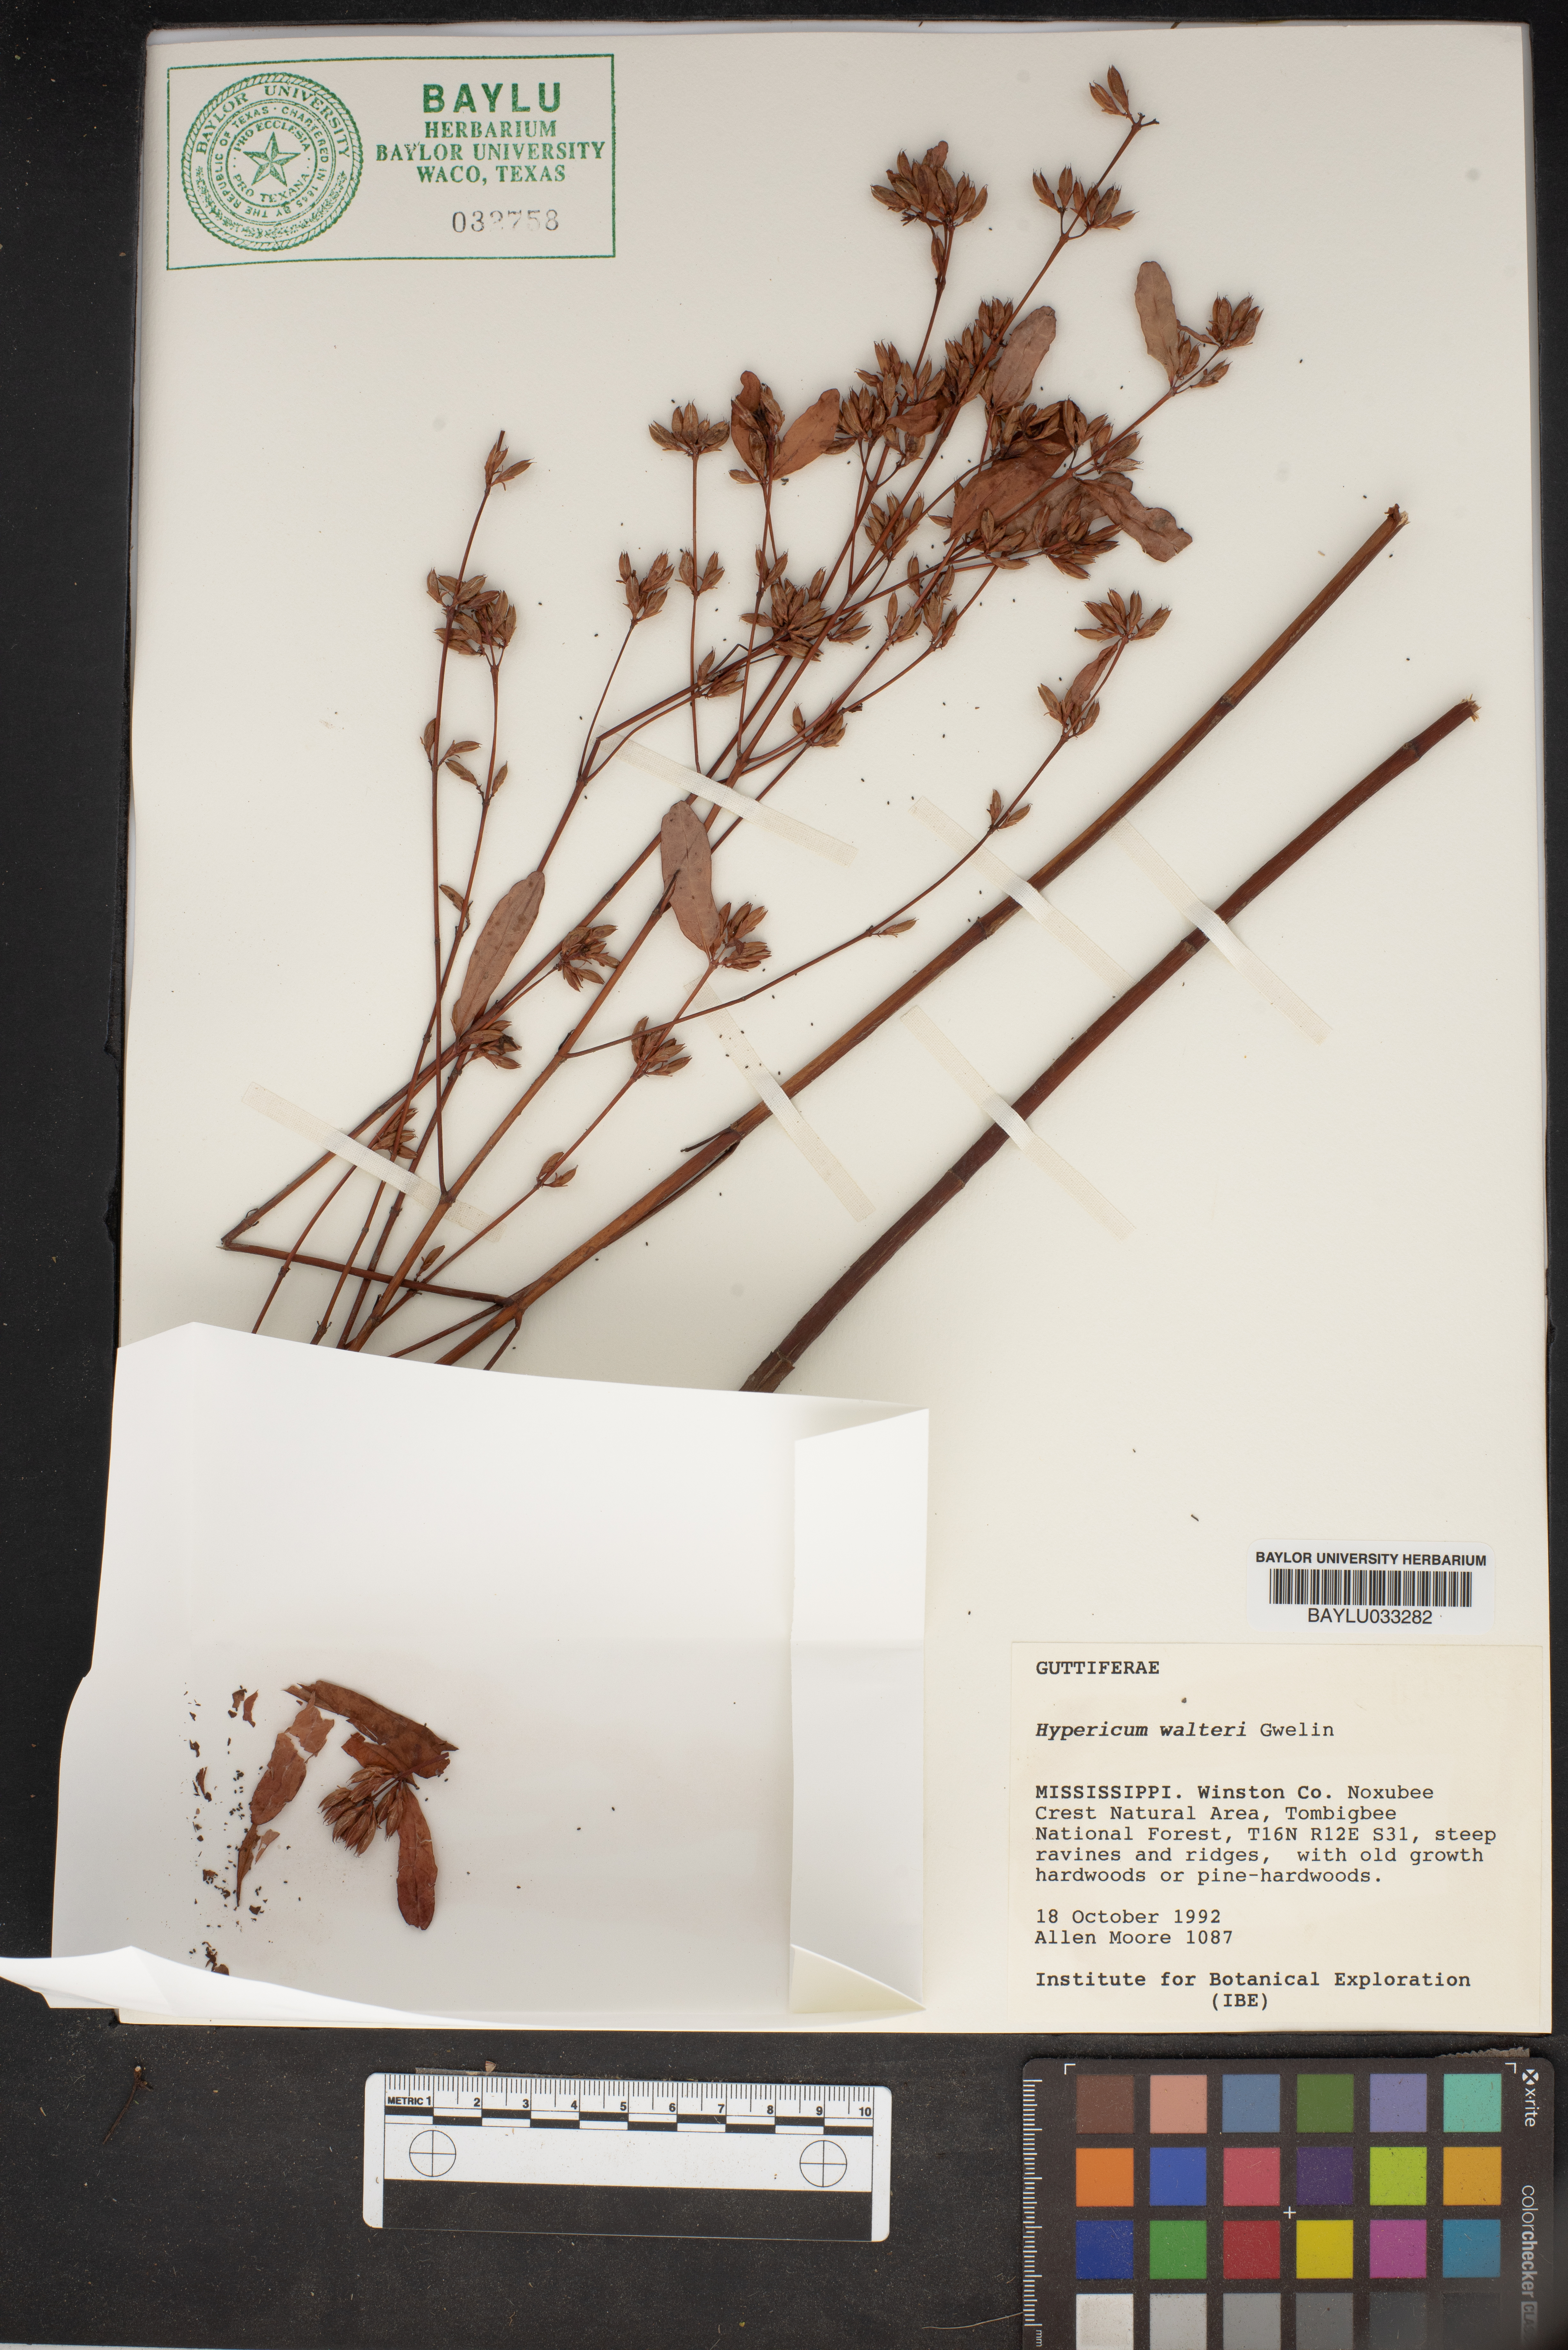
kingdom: Plantae
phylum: Tracheophyta
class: Magnoliopsida
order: Malpighiales
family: Hypericaceae
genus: Triadenum
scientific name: Triadenum walteri
